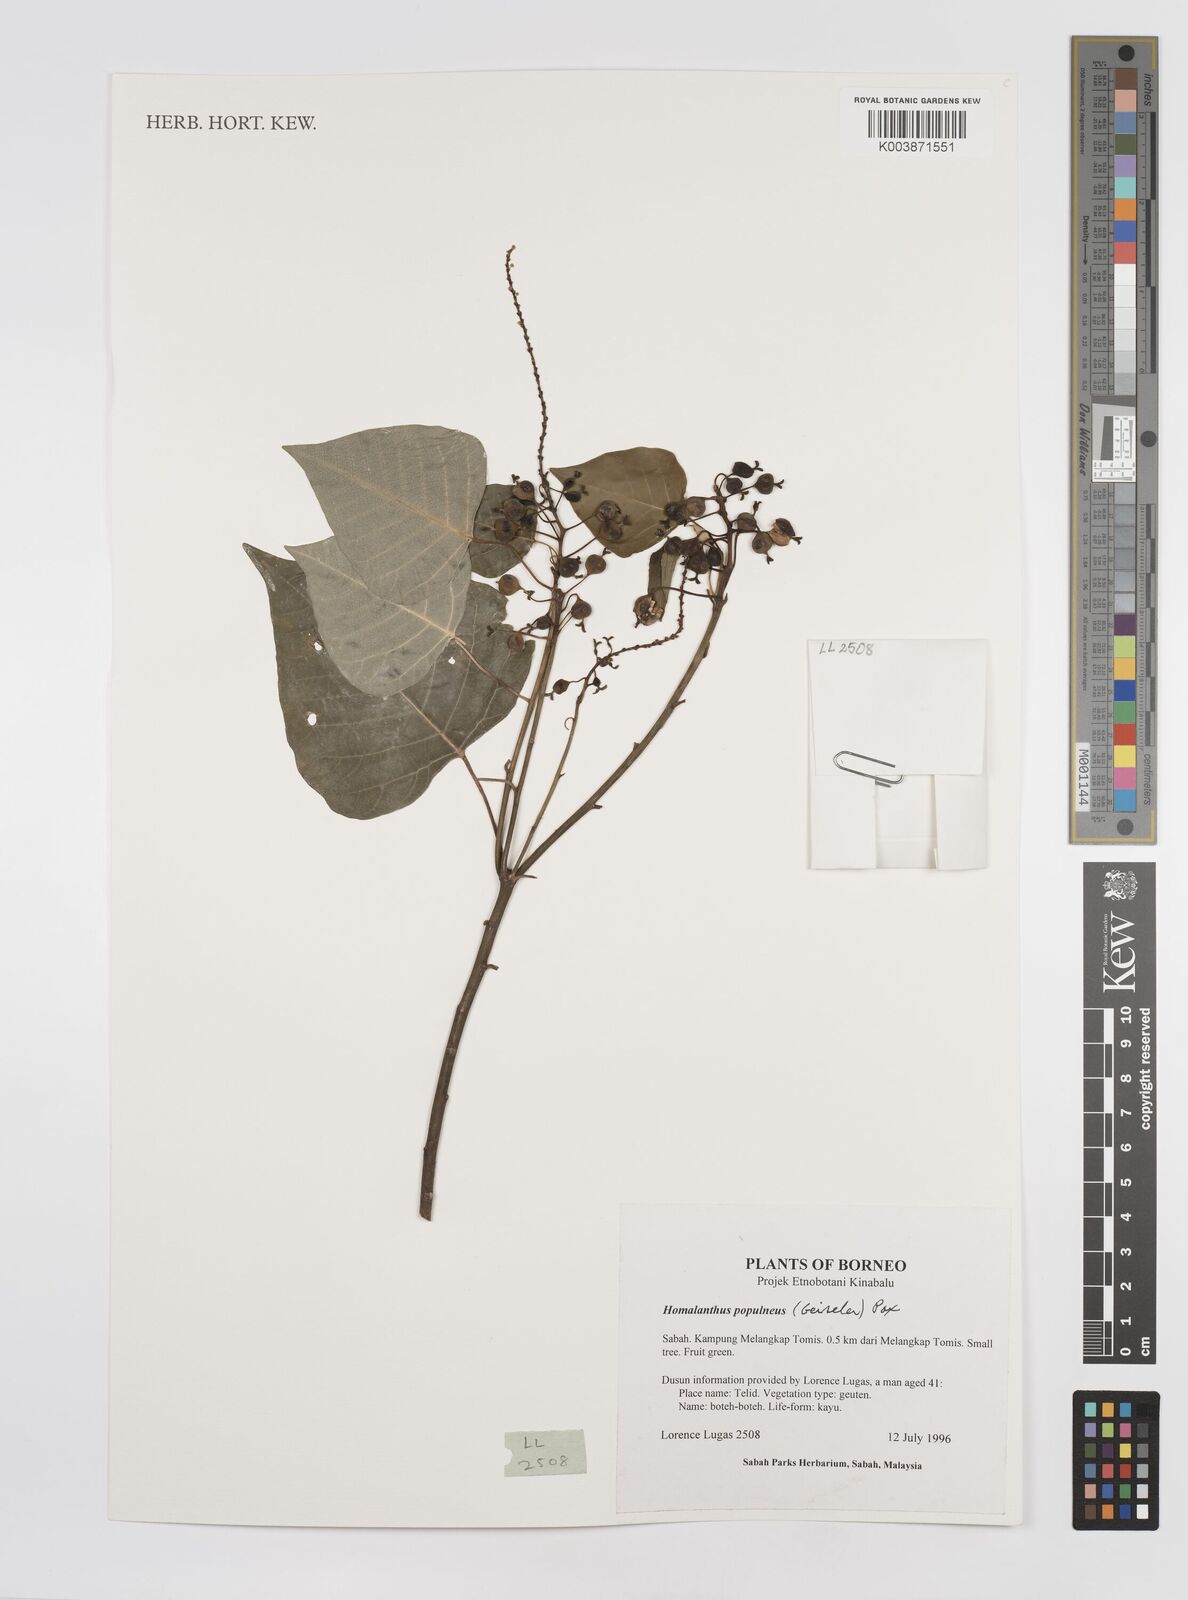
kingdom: Plantae
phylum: Tracheophyta
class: Magnoliopsida
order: Malpighiales
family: Euphorbiaceae
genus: Homalanthus
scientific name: Homalanthus populneus
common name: Spurge
